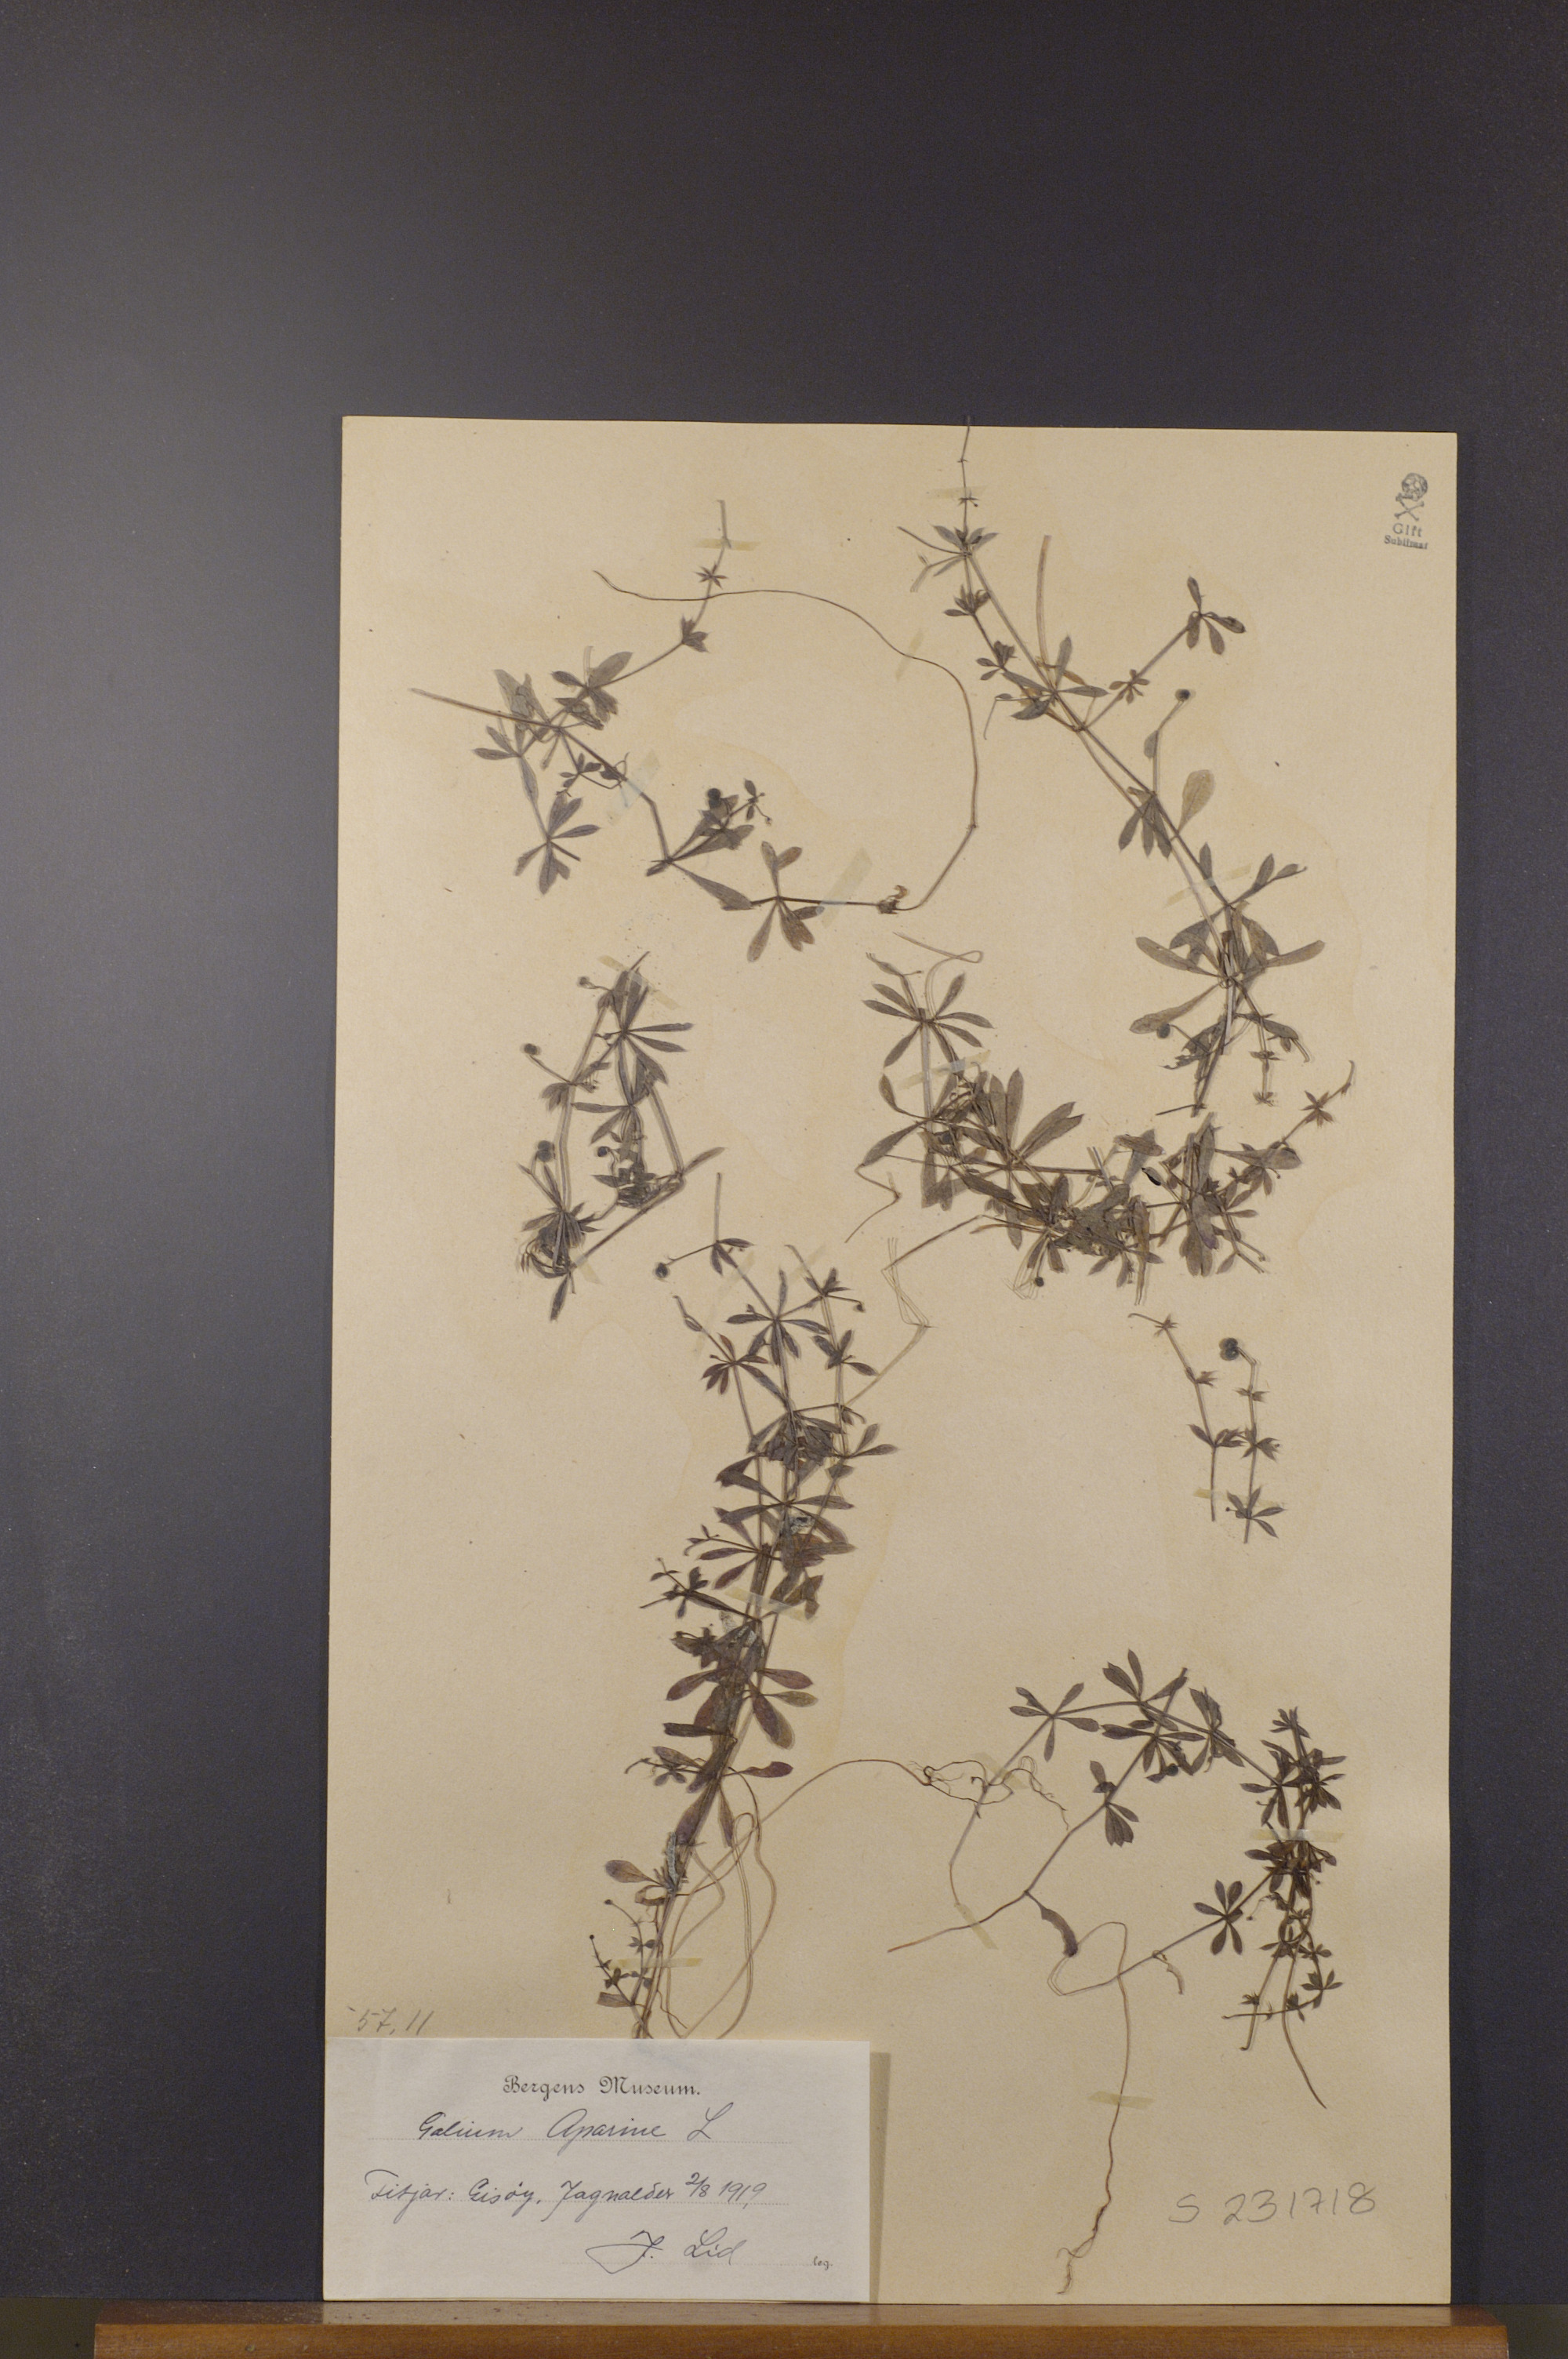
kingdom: Plantae
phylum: Tracheophyta
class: Magnoliopsida
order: Gentianales
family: Rubiaceae
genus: Galium
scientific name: Galium aparine
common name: Cleavers
